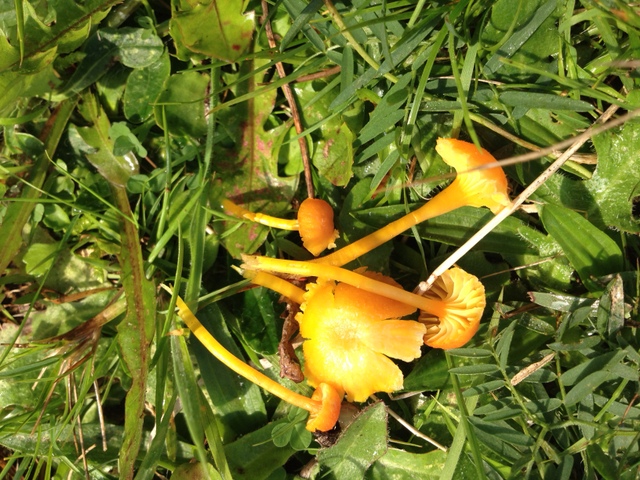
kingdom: Fungi
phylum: Basidiomycota
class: Agaricomycetes
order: Agaricales
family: Hygrophoraceae
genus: Hygrocybe
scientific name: Hygrocybe cantharellus
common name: kantarel-vokshat
